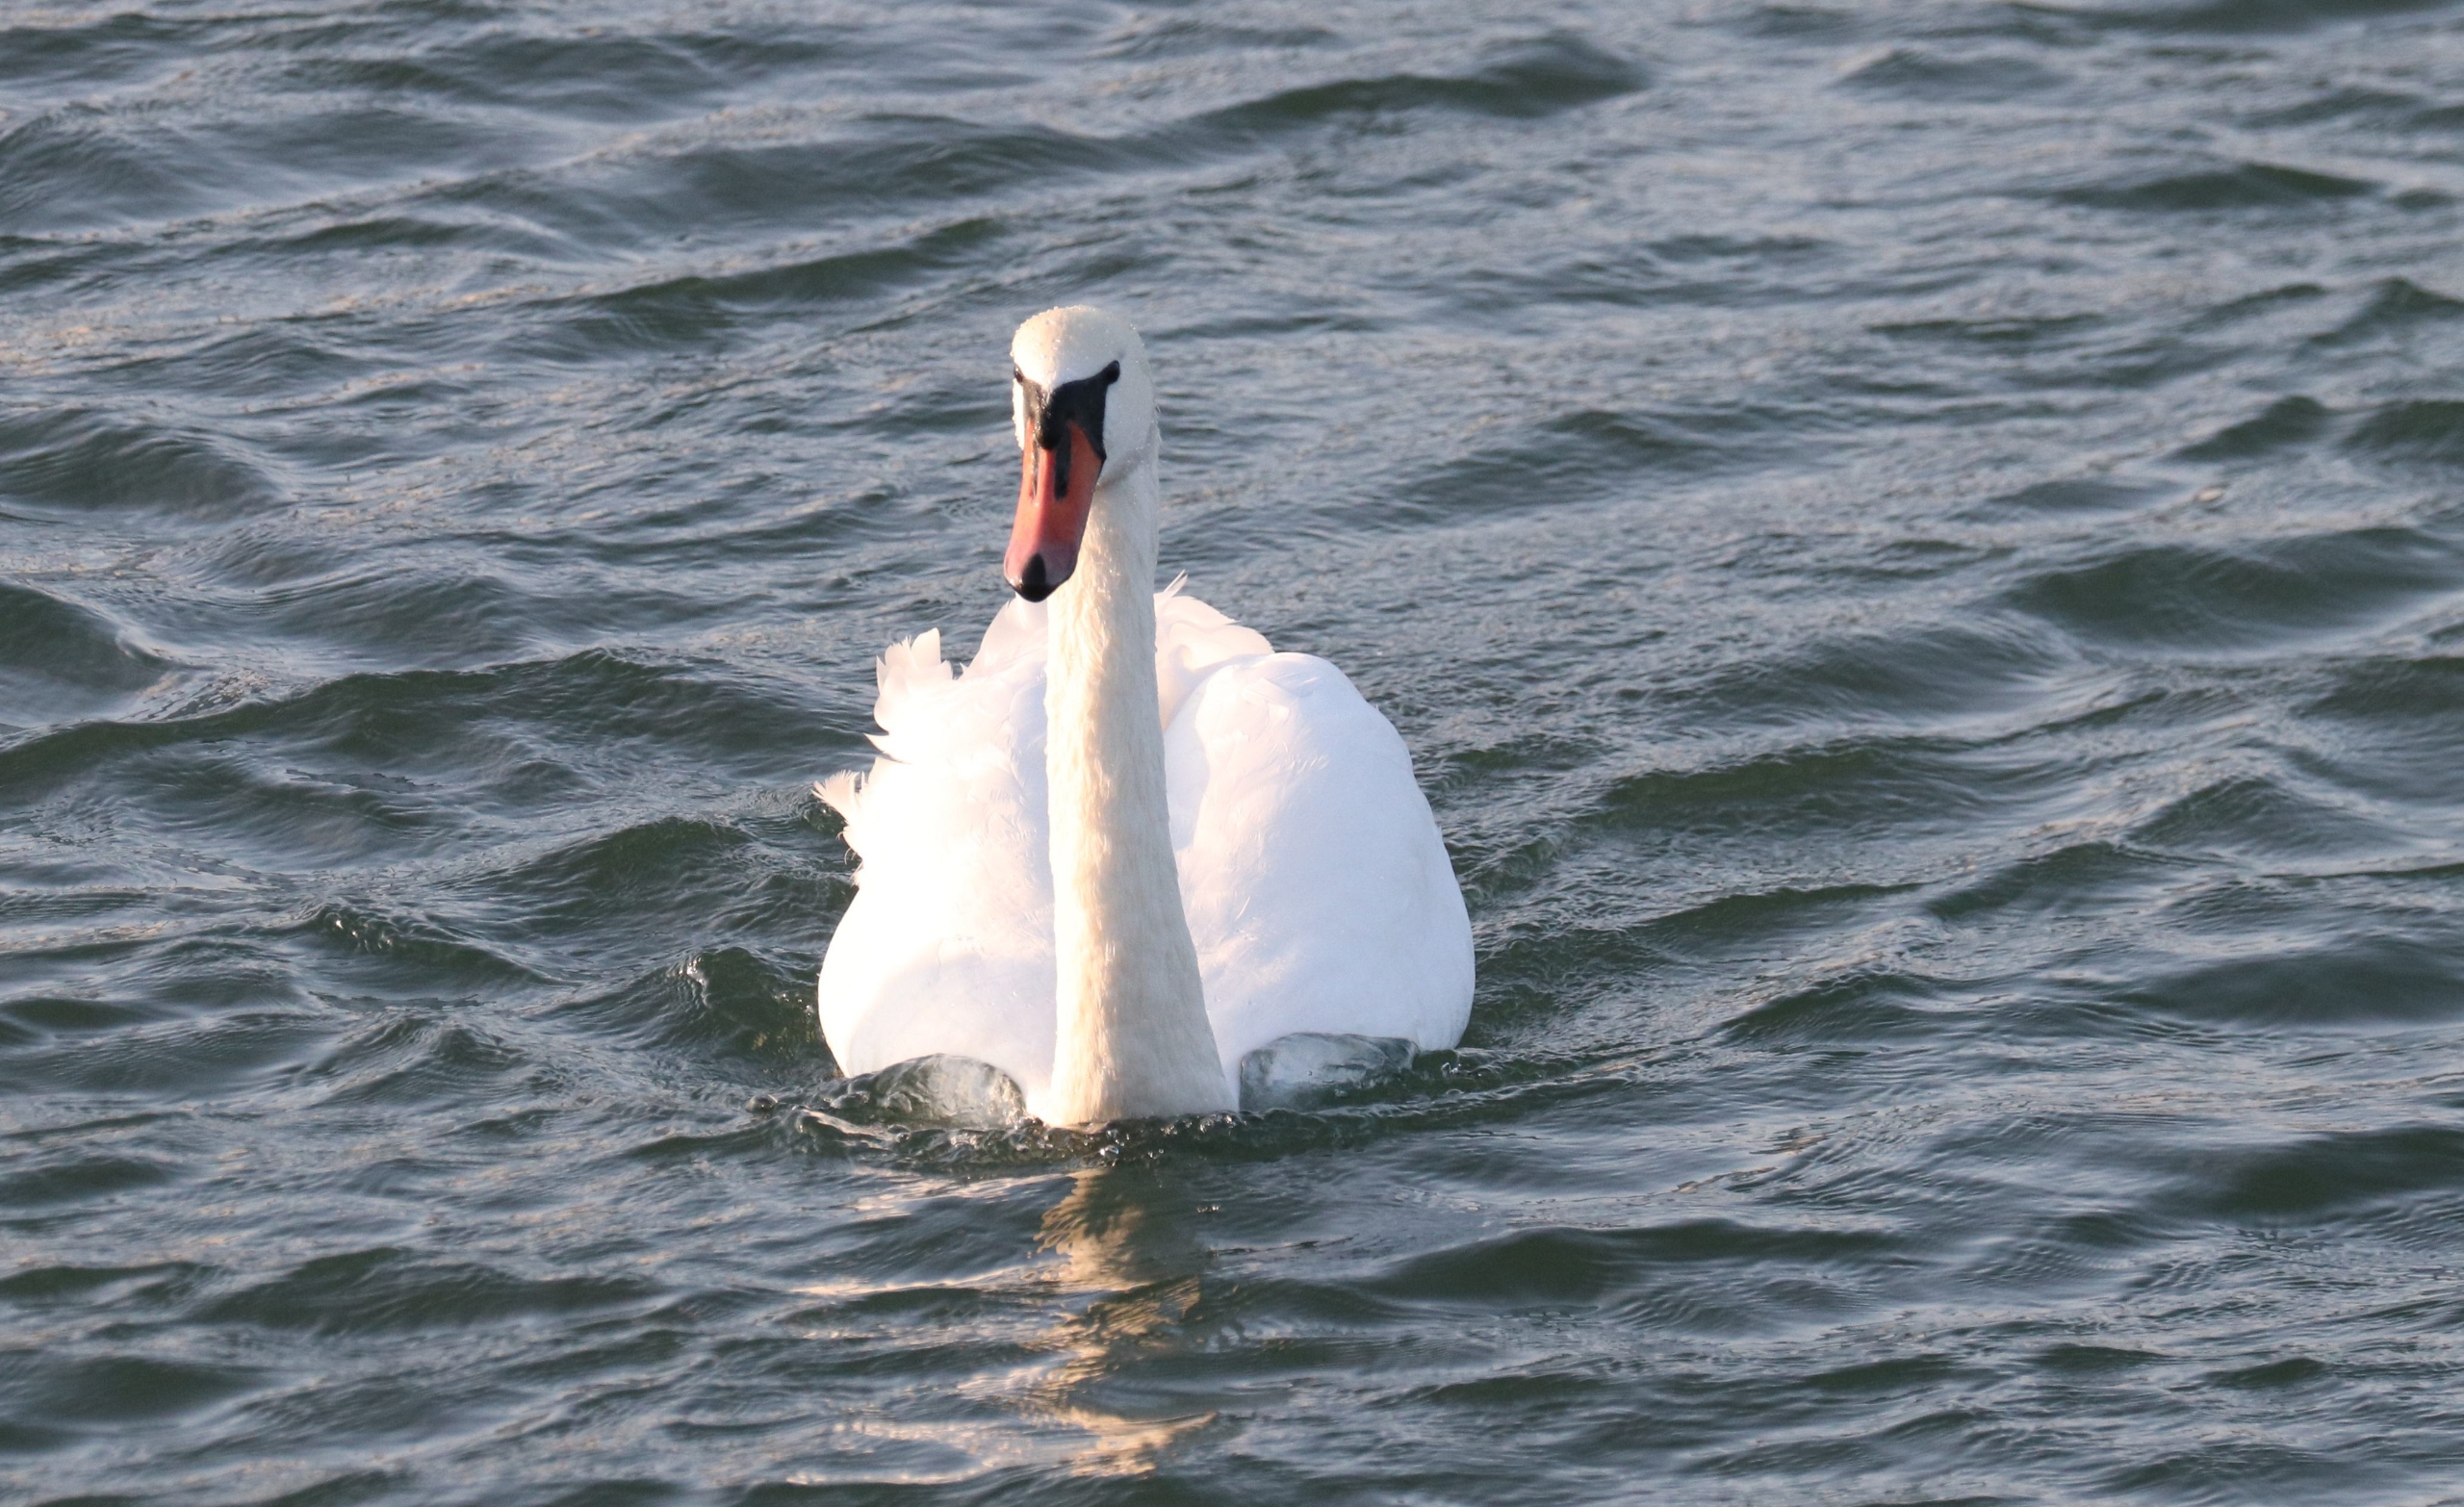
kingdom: Animalia
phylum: Chordata
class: Aves
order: Anseriformes
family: Anatidae
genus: Cygnus
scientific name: Cygnus olor
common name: Knopsvane
